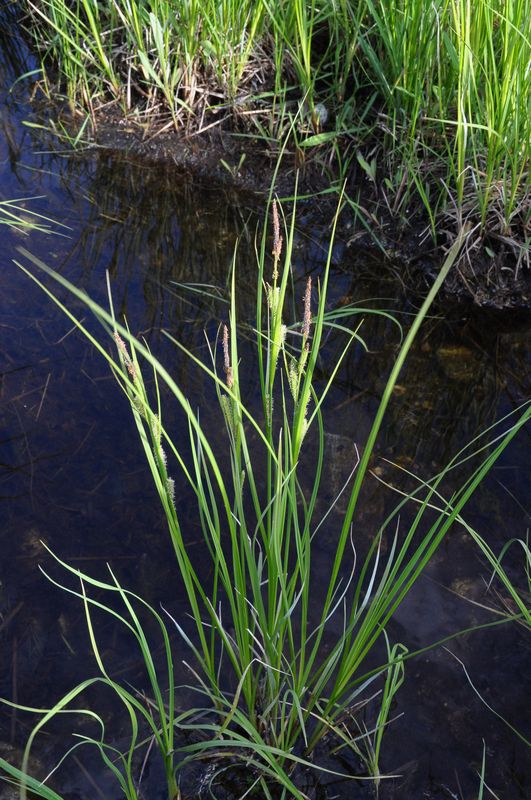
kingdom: Plantae
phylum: Tracheophyta
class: Liliopsida
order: Poales
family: Cyperaceae
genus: Carex
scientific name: Carex aquatilis
